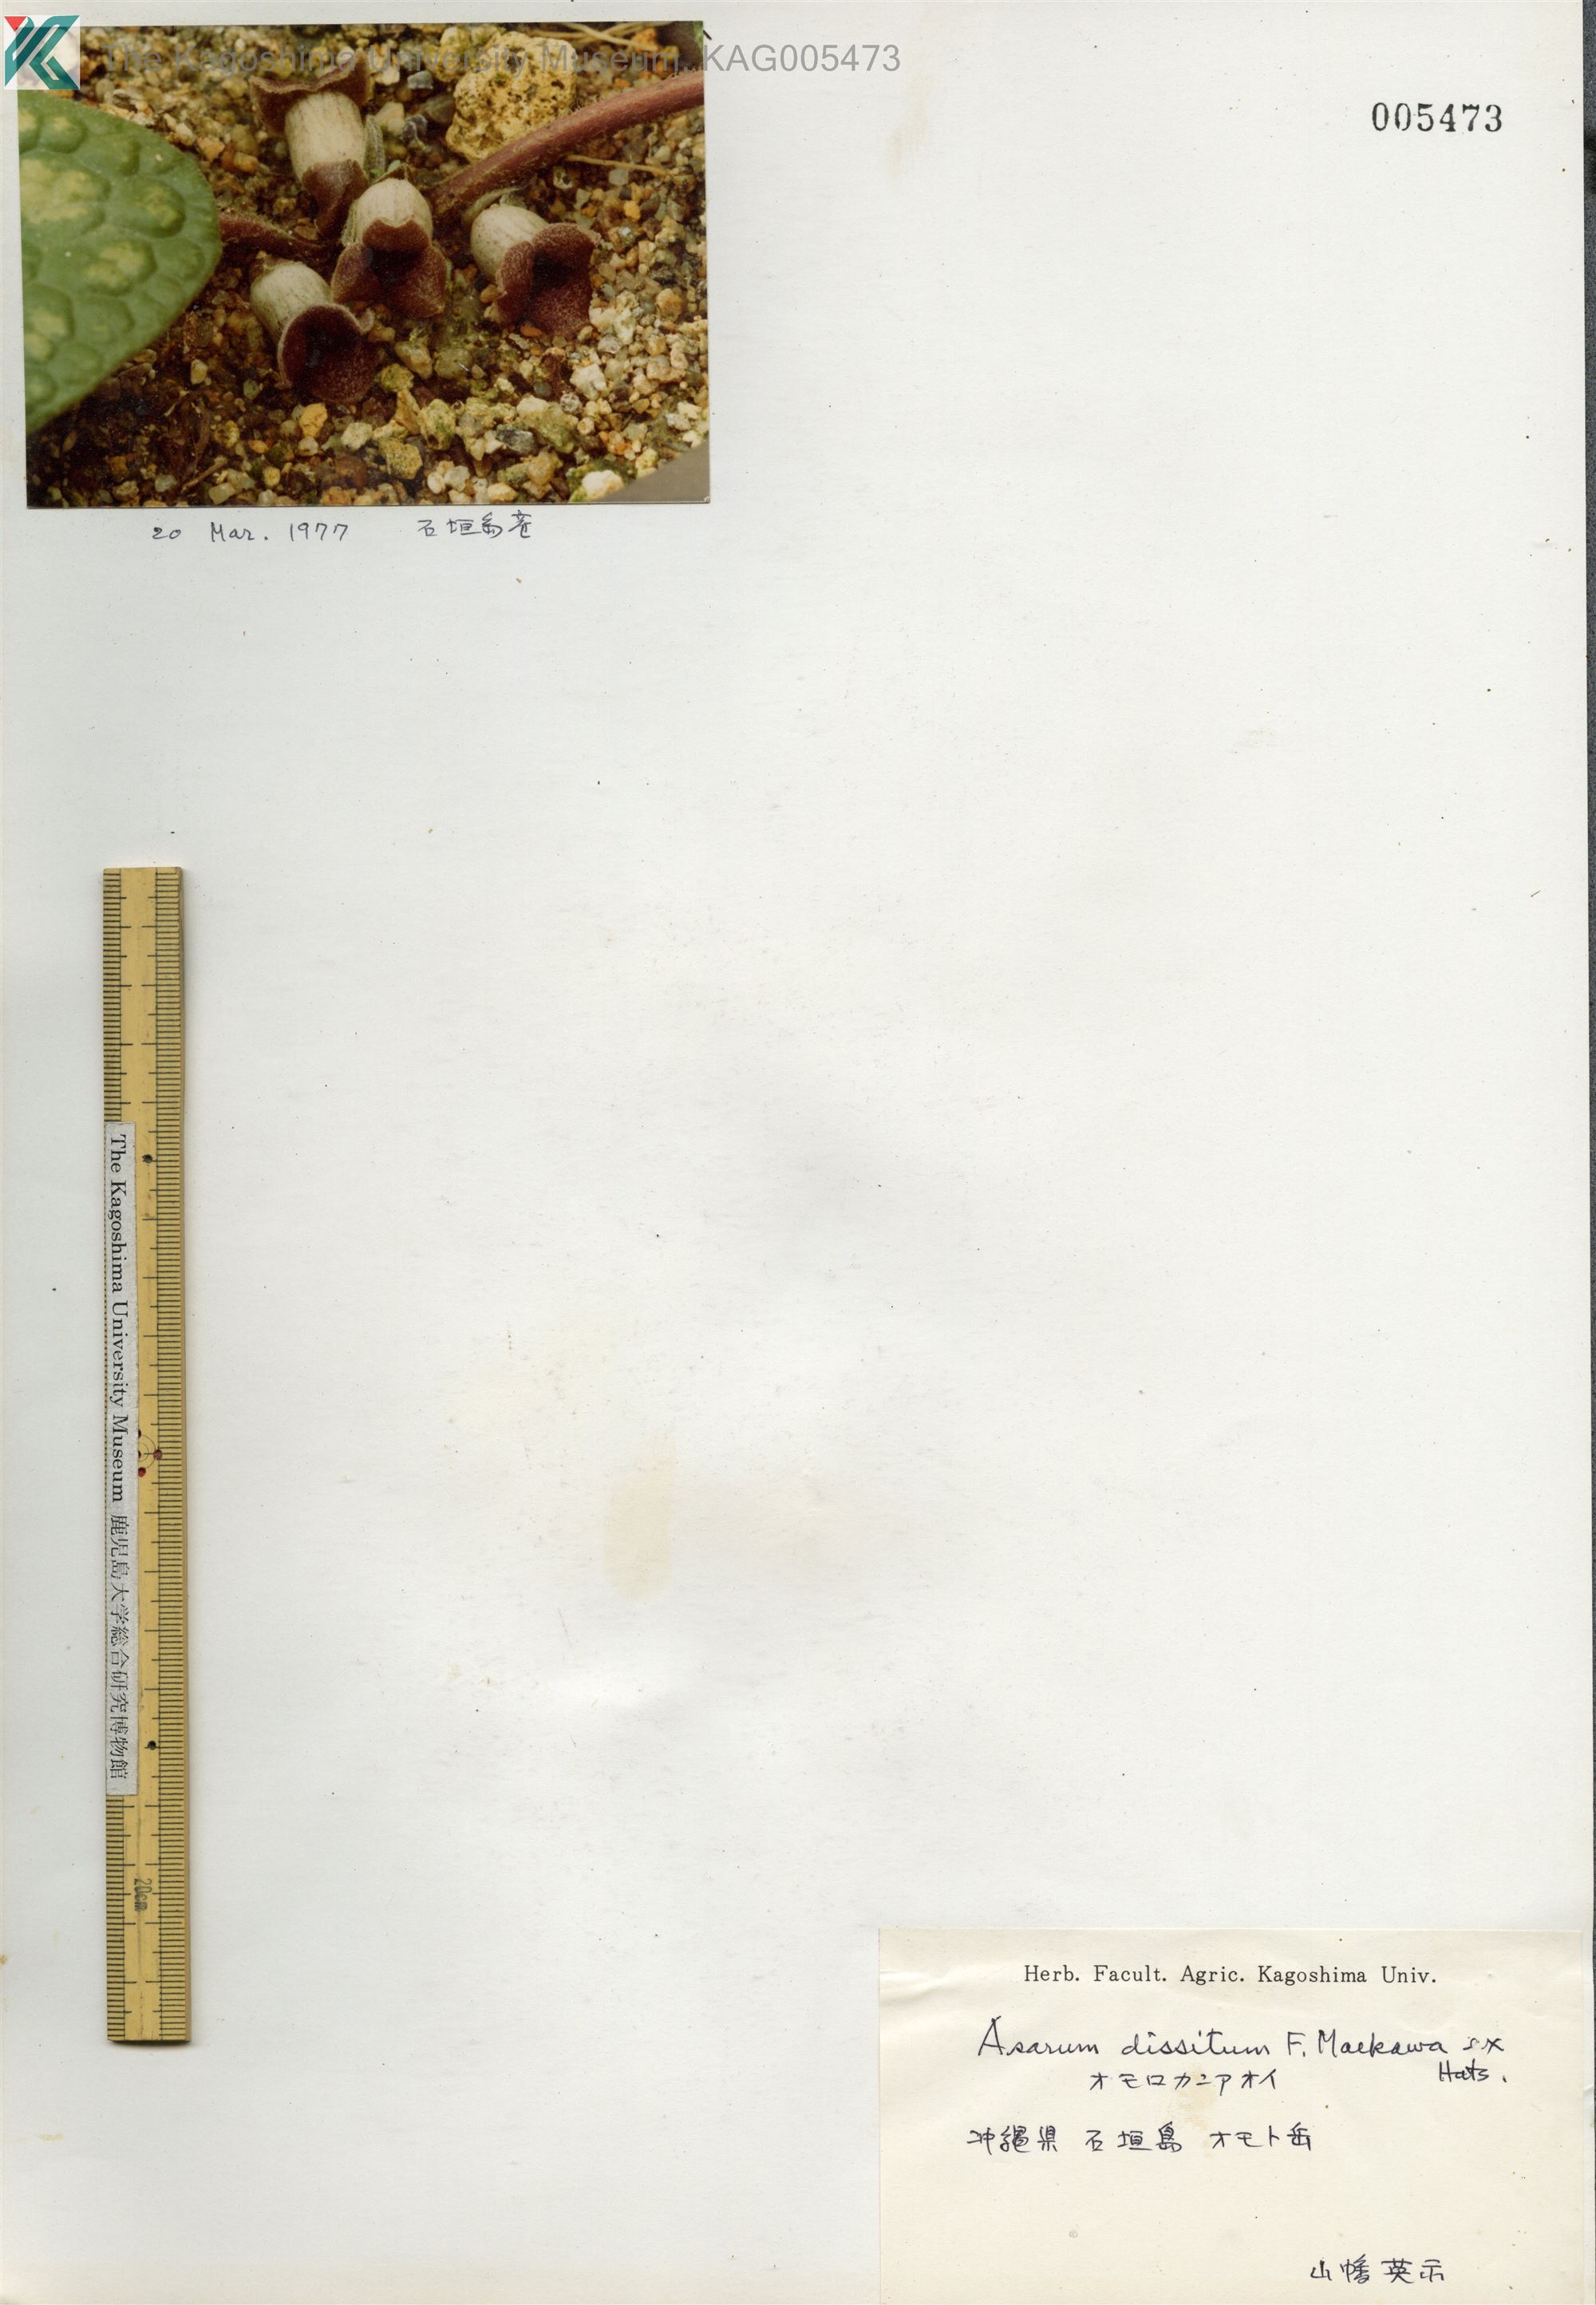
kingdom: Plantae
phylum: Tracheophyta
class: Magnoliopsida
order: Piperales
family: Aristolochiaceae
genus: Asarum
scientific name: Asarum dissitum
